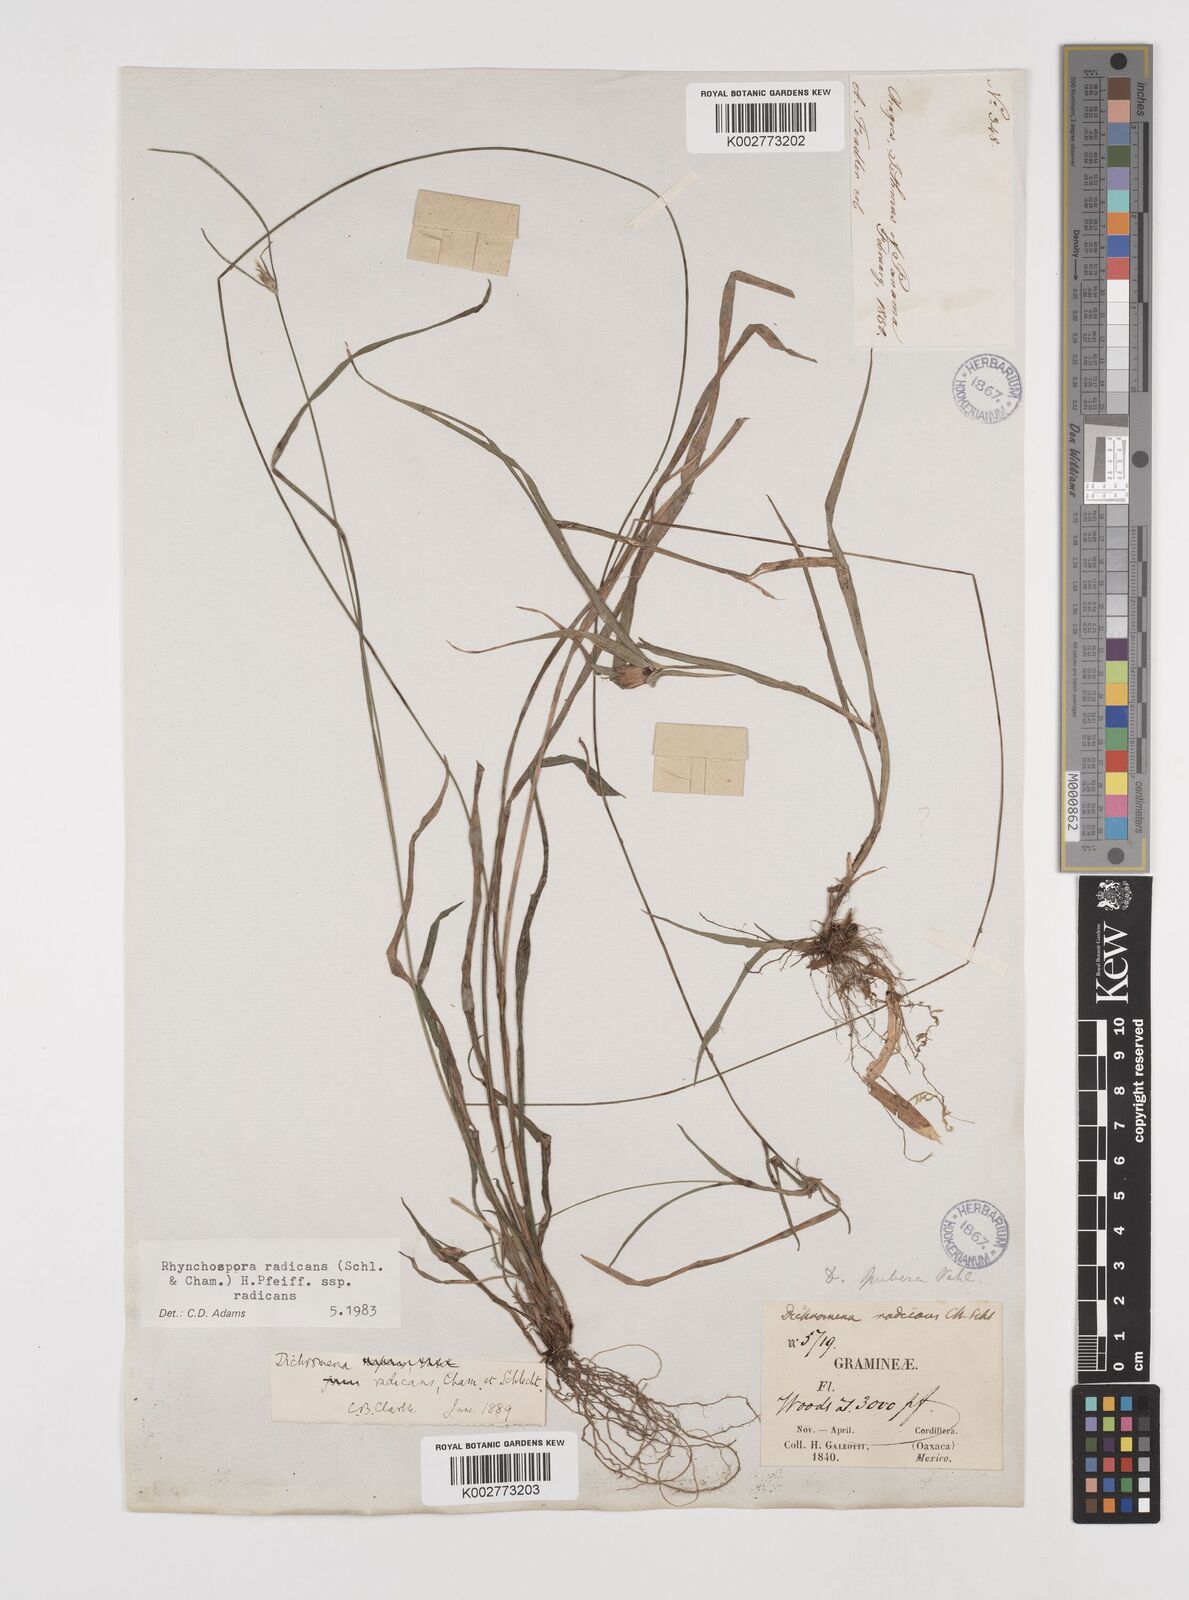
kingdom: Plantae
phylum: Tracheophyta
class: Liliopsida
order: Poales
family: Cyperaceae
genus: Rhynchospora
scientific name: Rhynchospora radicans
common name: Tropical whitetop
